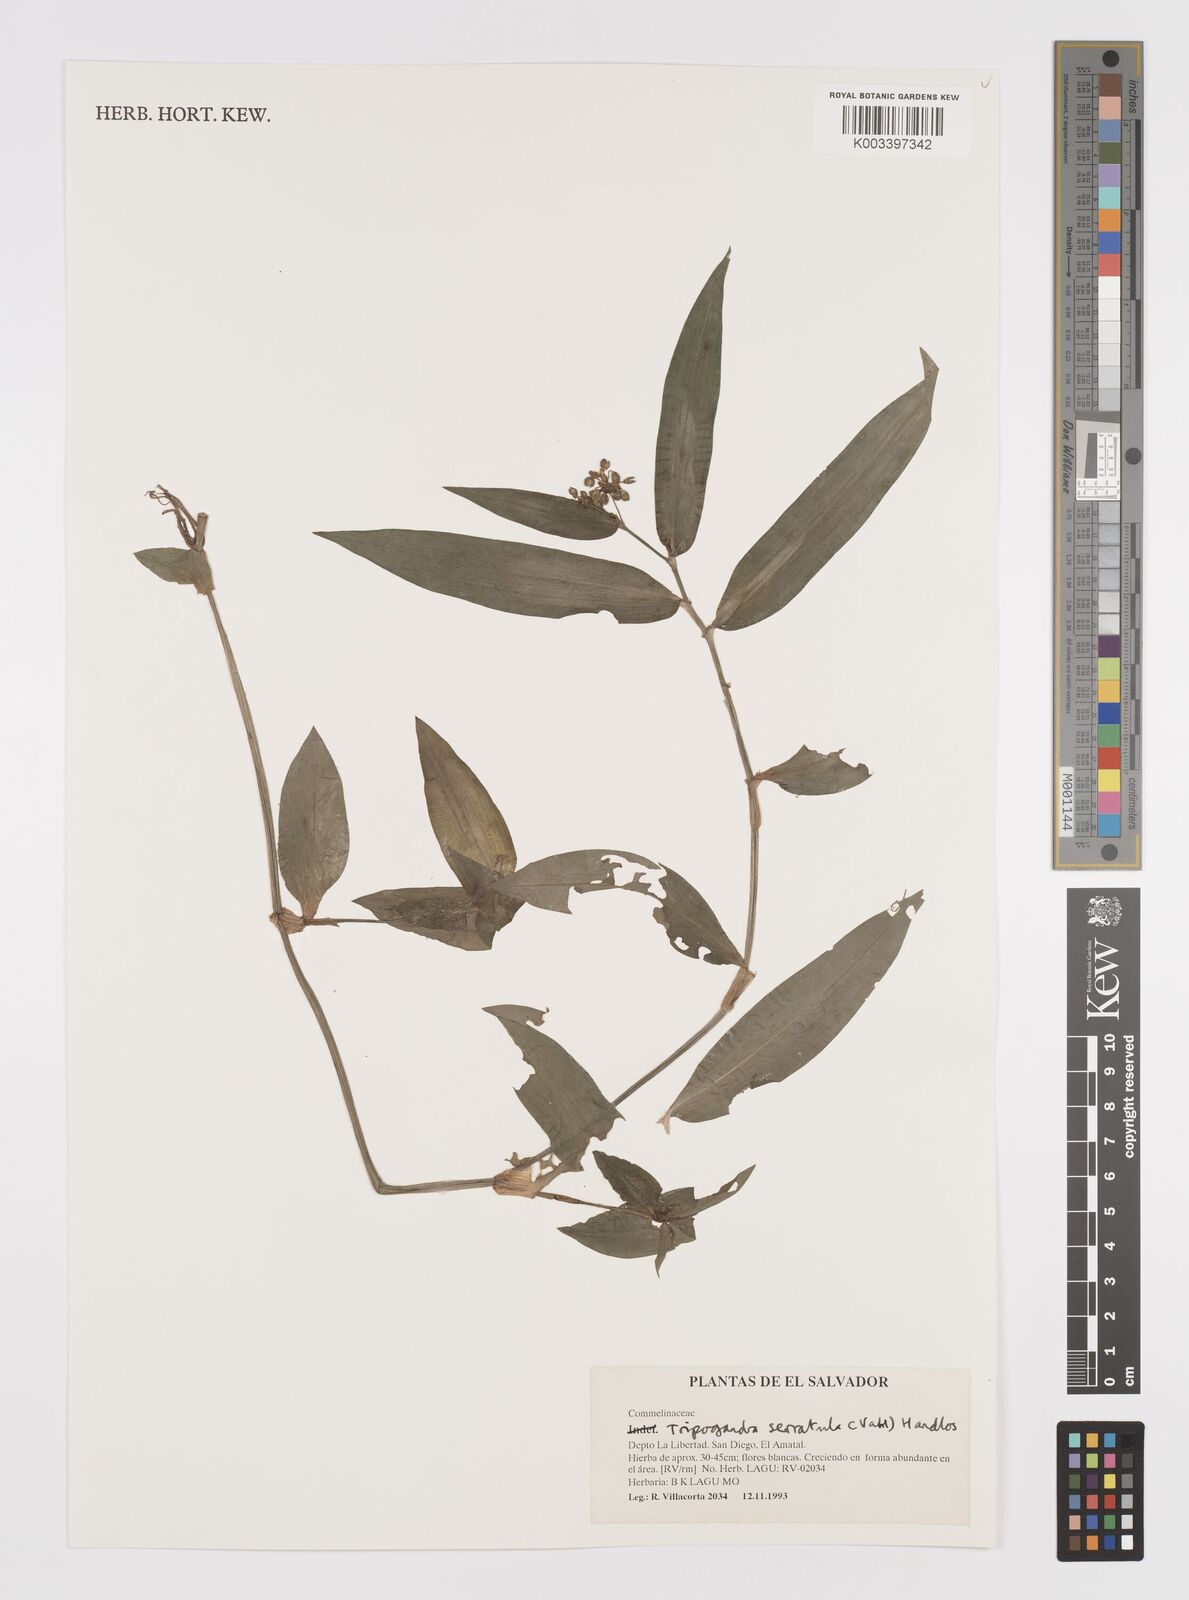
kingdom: Plantae
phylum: Tracheophyta
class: Liliopsida
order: Commelinales
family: Commelinaceae
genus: Callisia
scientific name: Callisia serrulata
